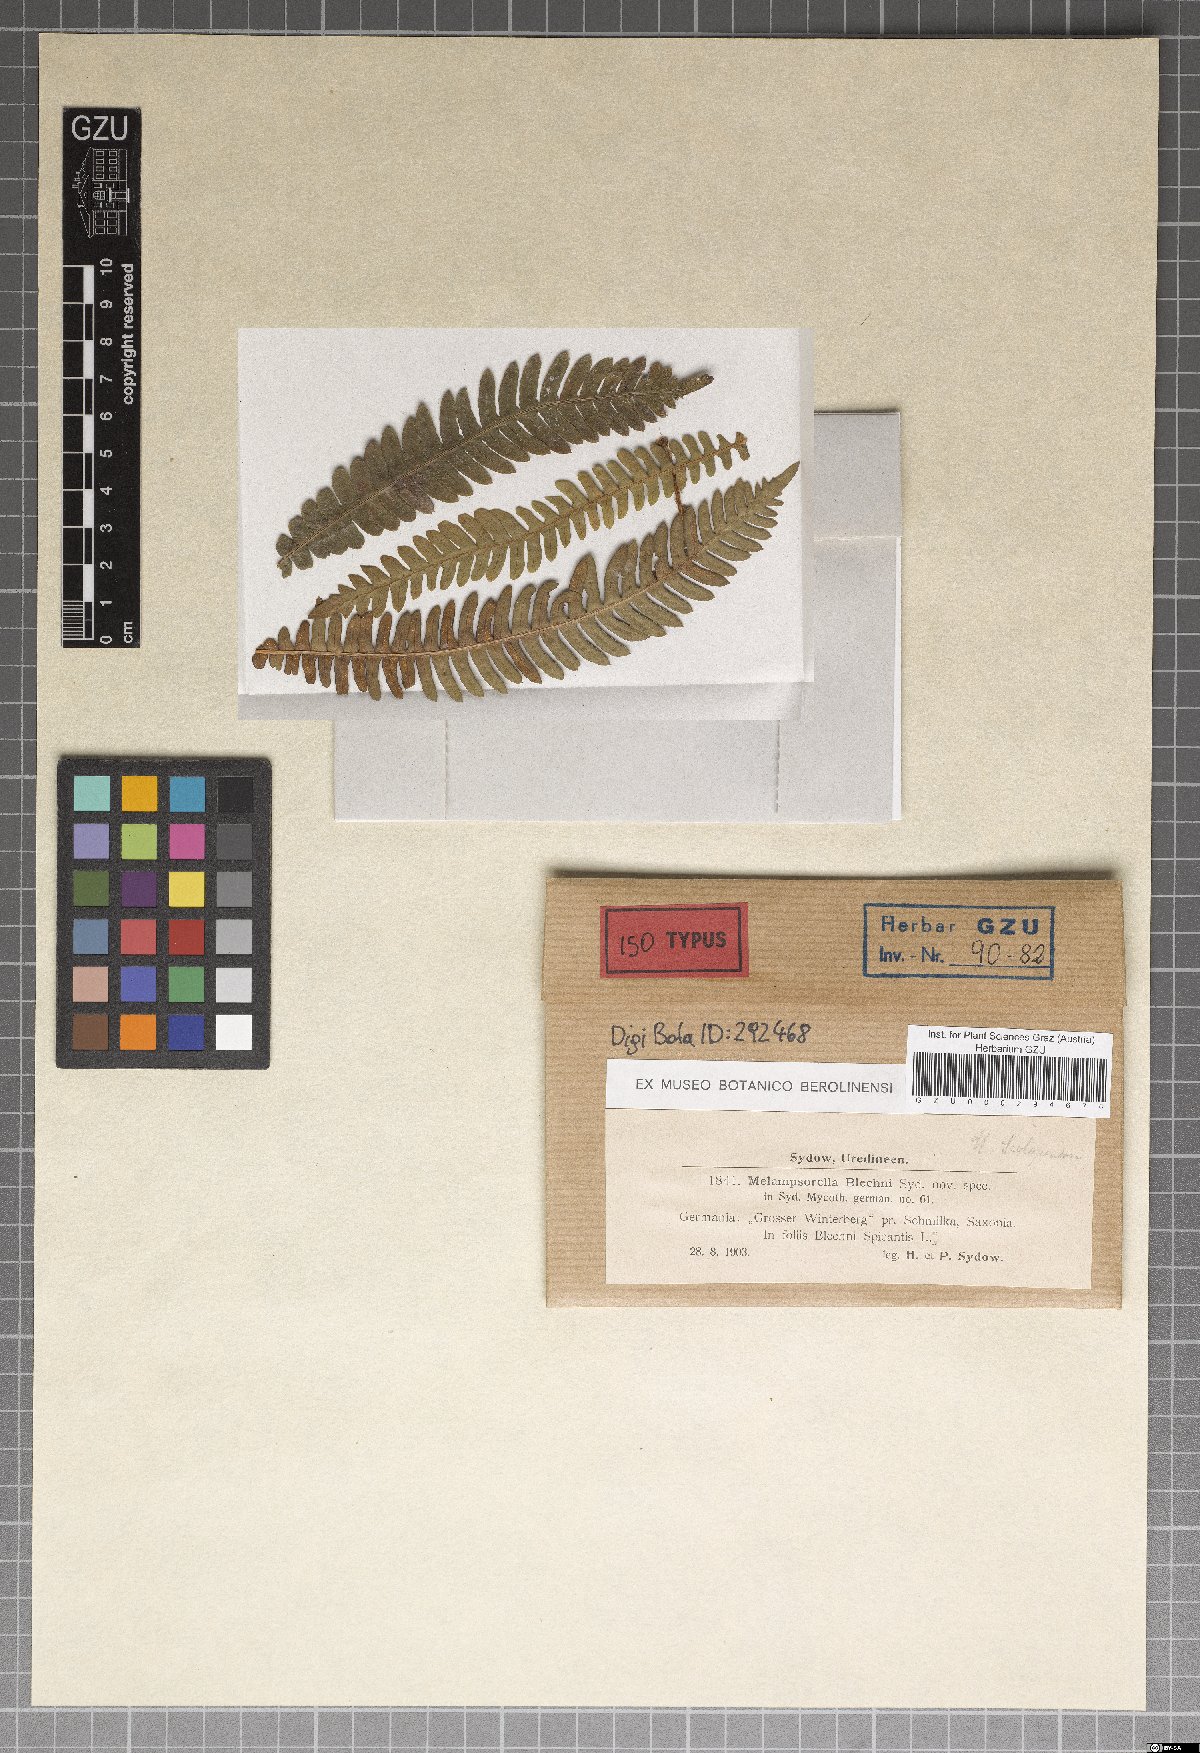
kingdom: Fungi
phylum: Basidiomycota
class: Pucciniomycetes
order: Pucciniales
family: Milesinaceae
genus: Milesina
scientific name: Milesina blechni
